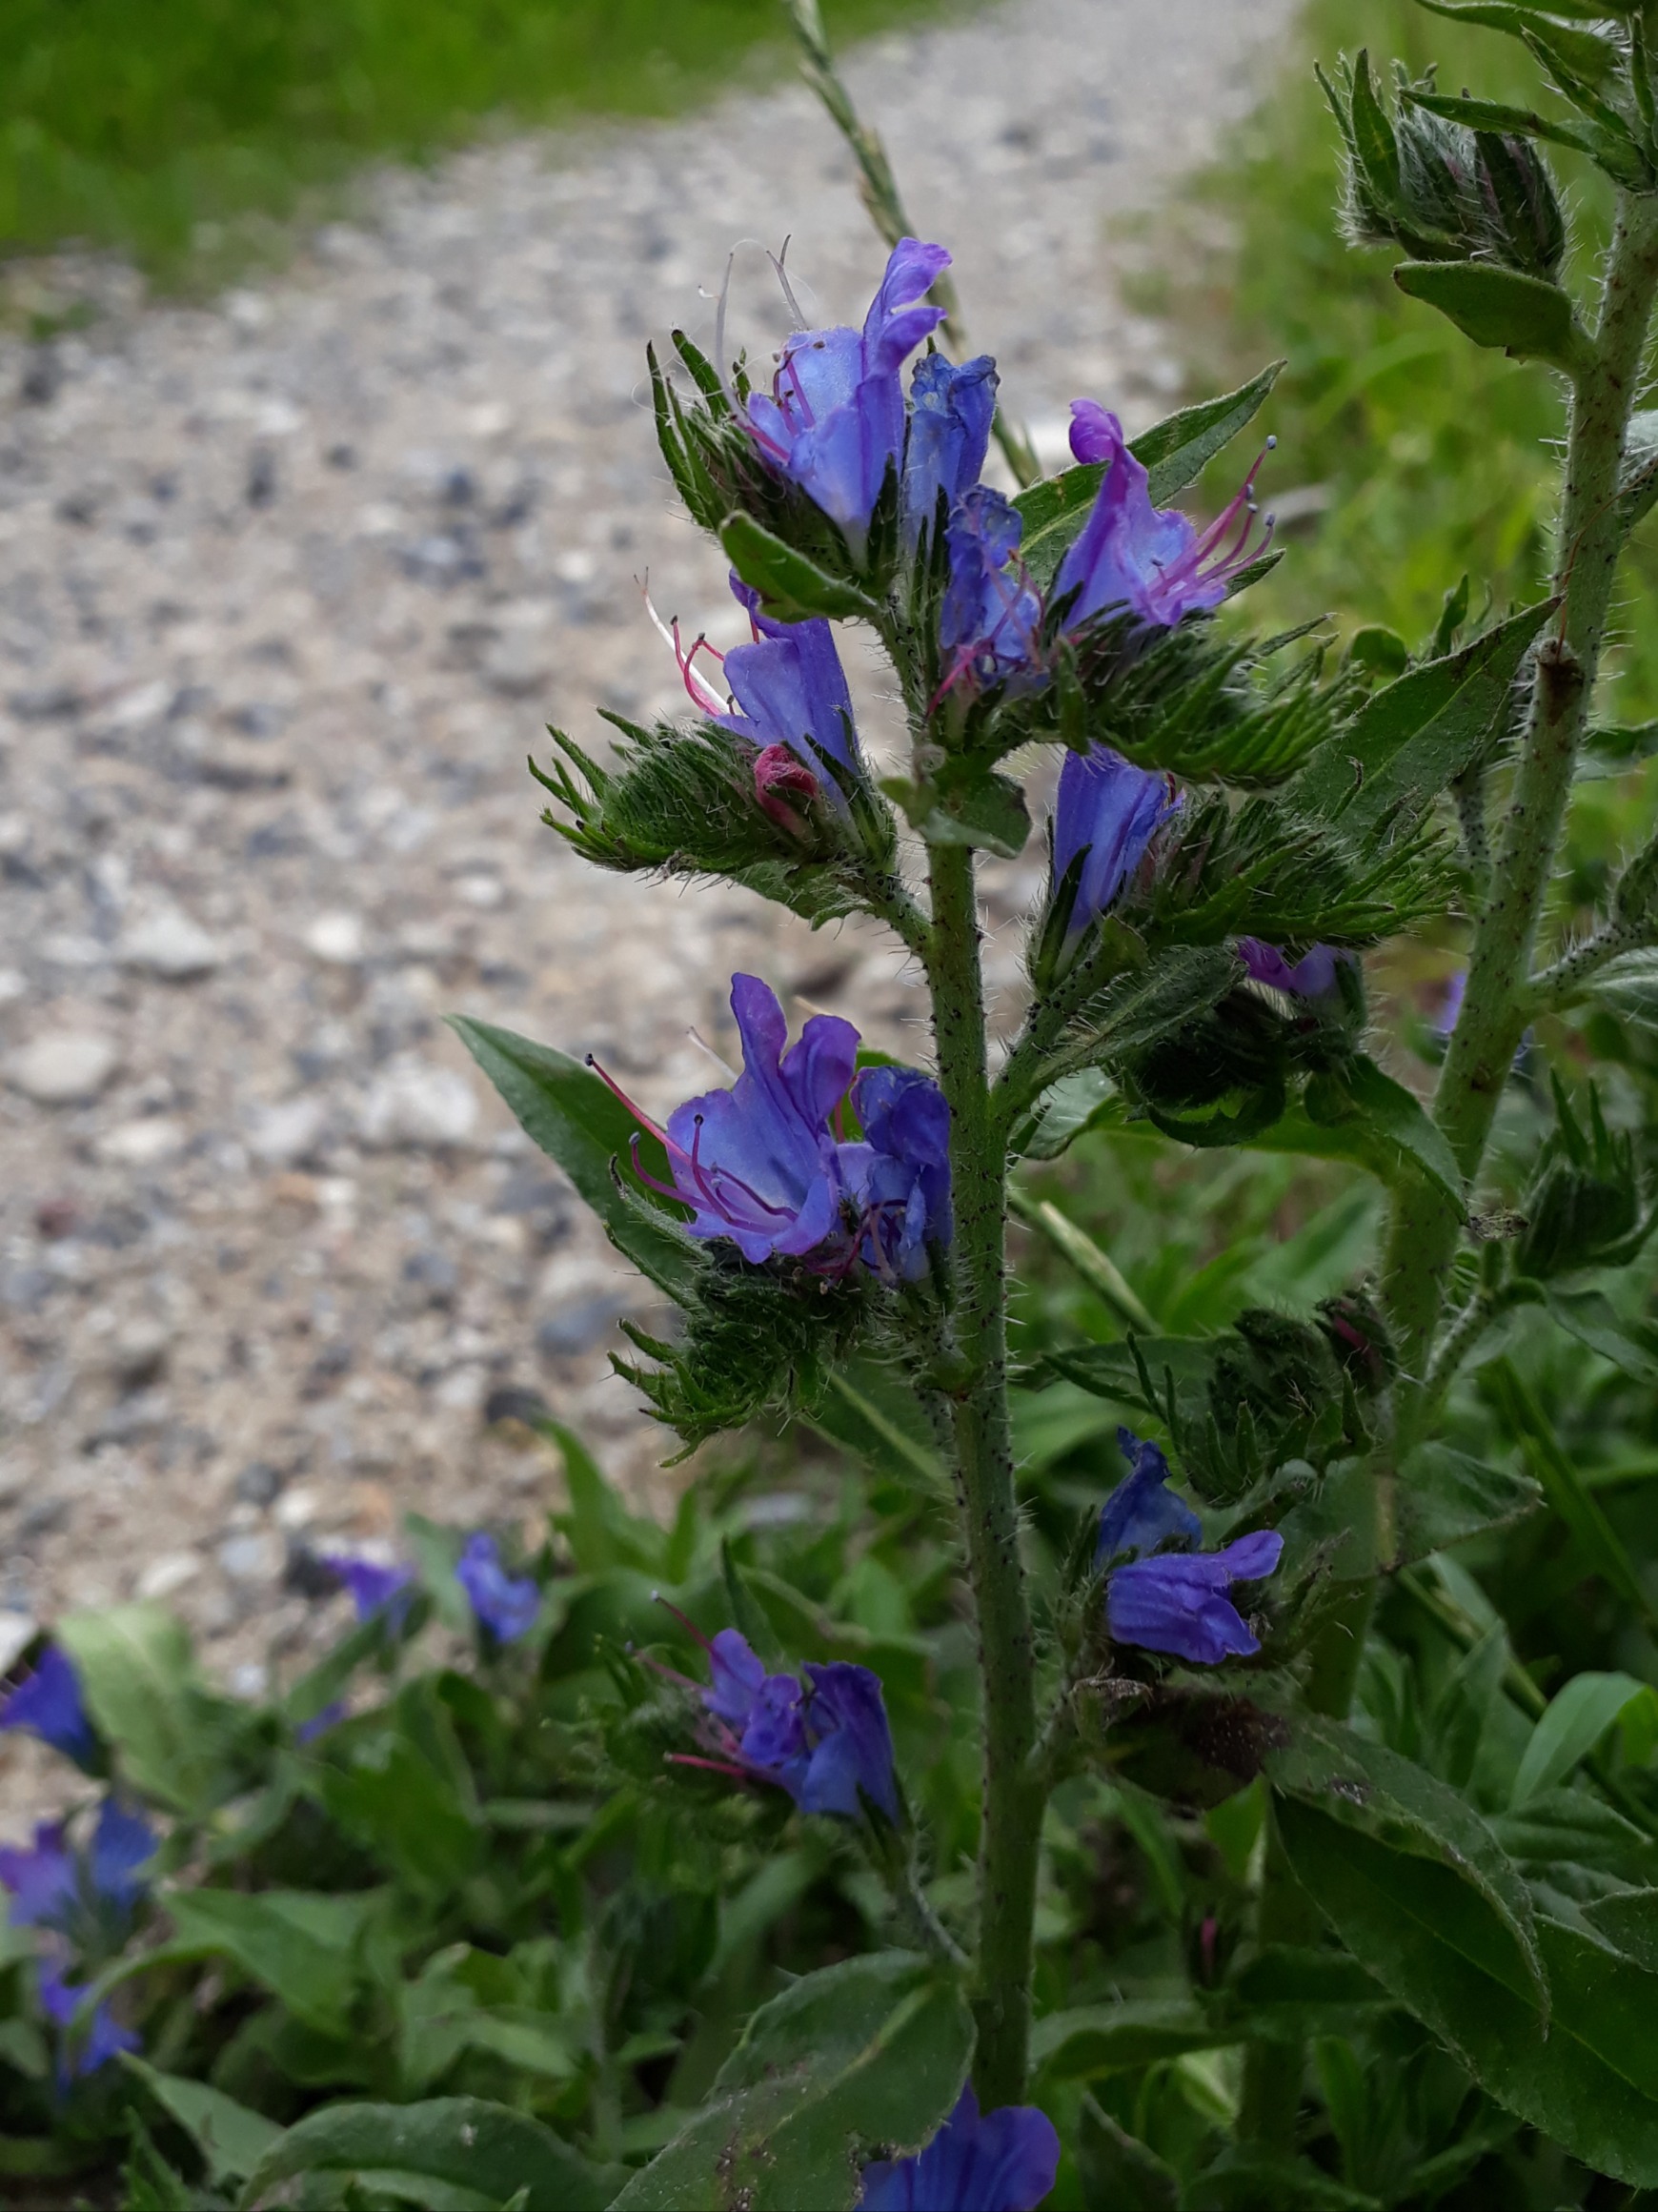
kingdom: Plantae
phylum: Tracheophyta
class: Magnoliopsida
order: Boraginales
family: Boraginaceae
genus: Echium
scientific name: Echium vulgare
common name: Slangehoved
